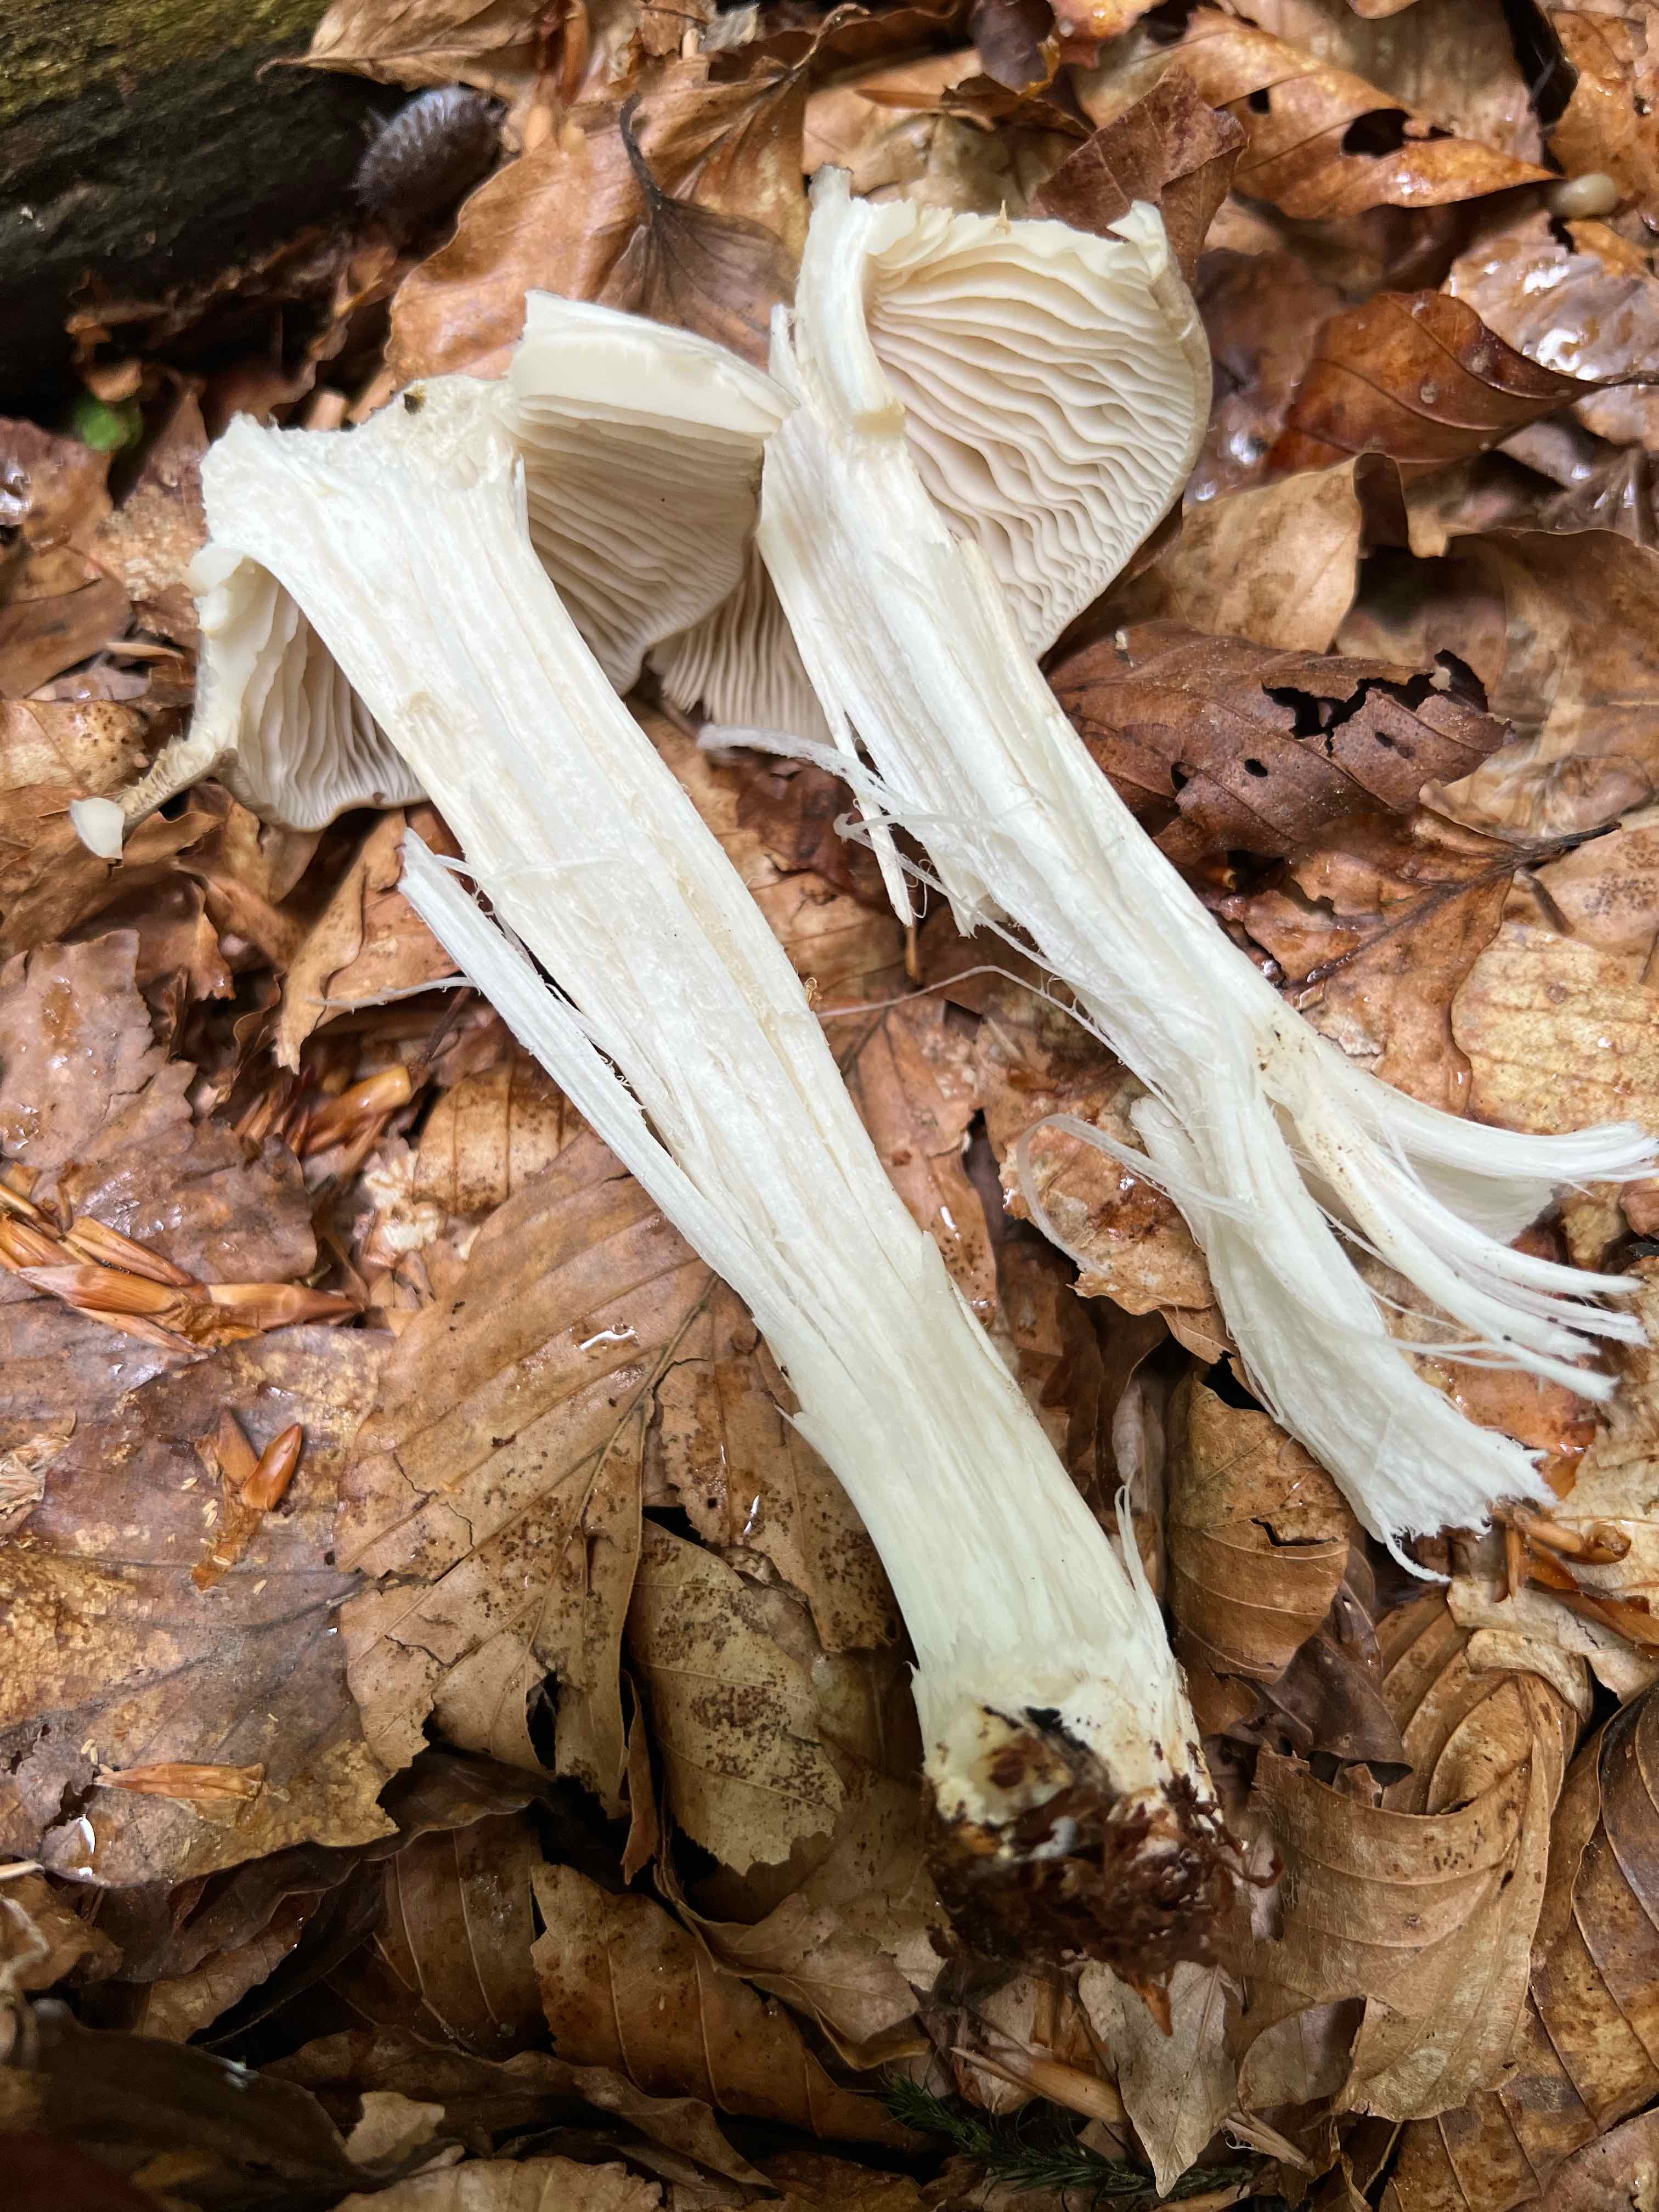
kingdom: Fungi
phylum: Basidiomycota
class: Agaricomycetes
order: Agaricales
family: Tricholomataceae
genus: Megacollybia
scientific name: Megacollybia platyphylla
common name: bredbladet væbnerhat
